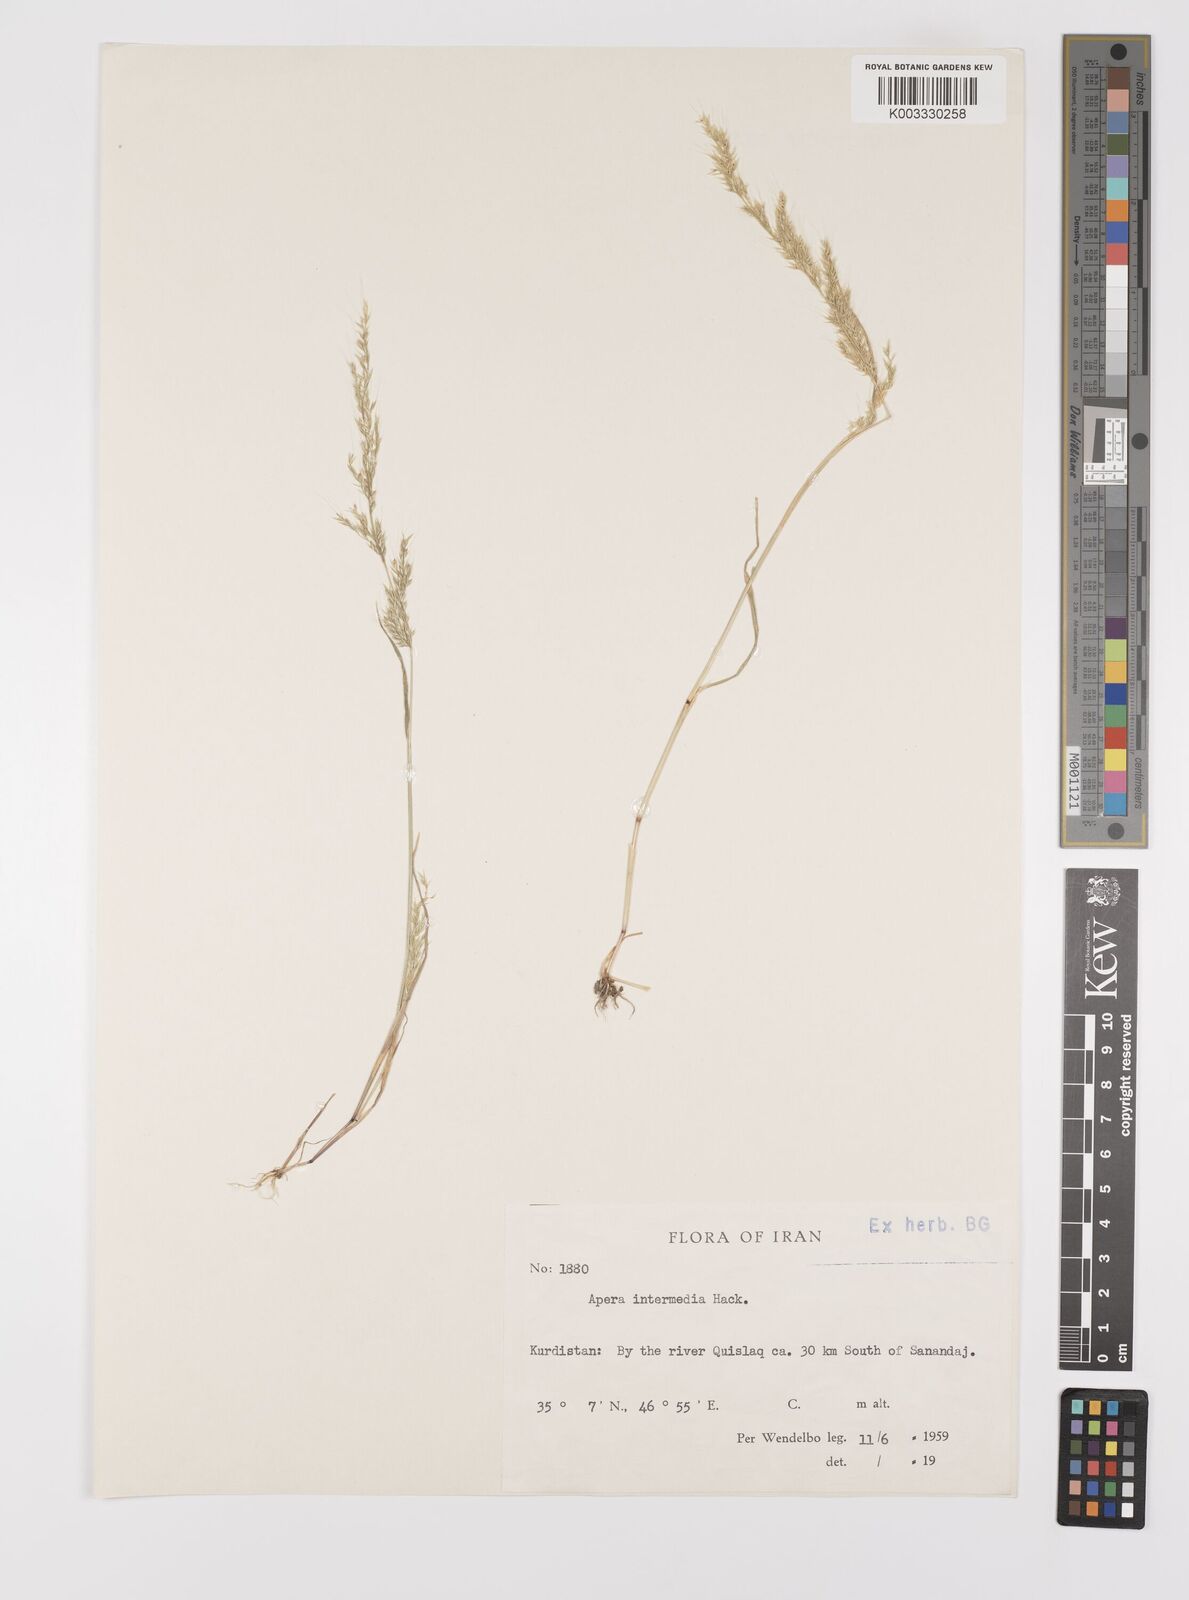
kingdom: Plantae
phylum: Tracheophyta
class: Liliopsida
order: Poales
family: Poaceae
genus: Apera
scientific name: Apera intermedia
